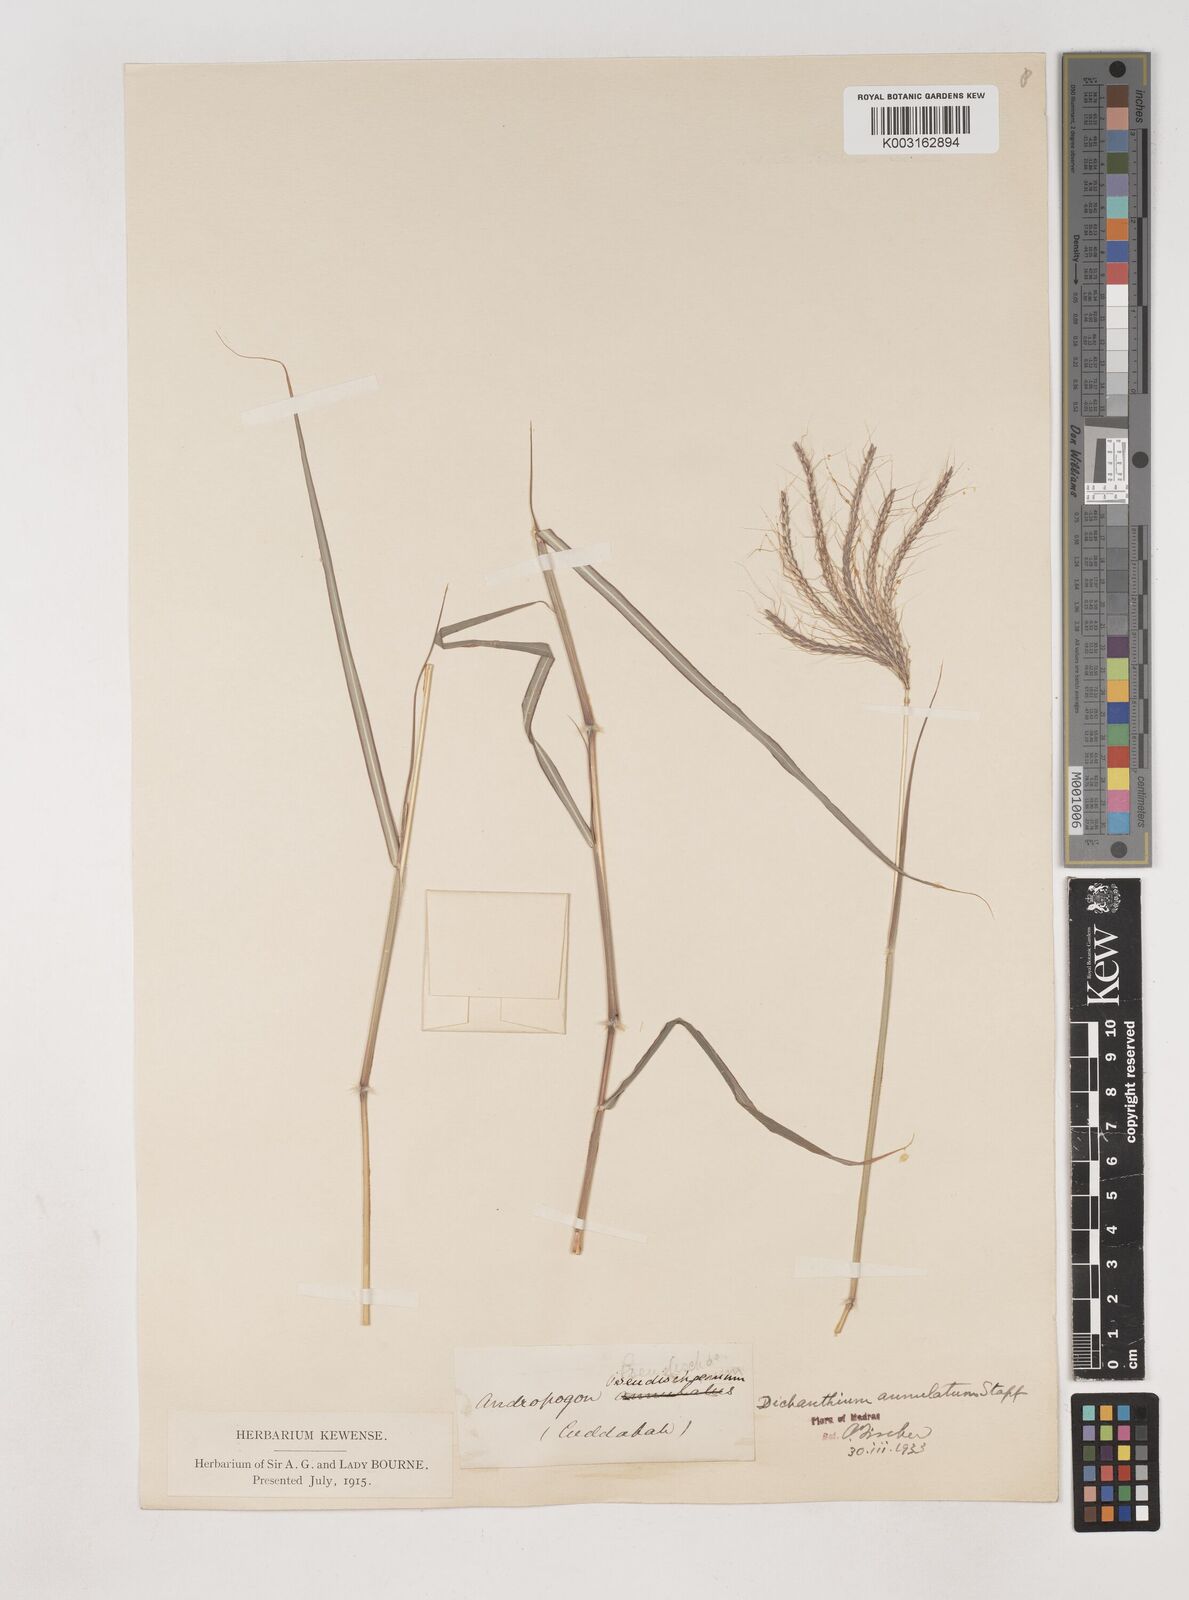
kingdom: Plantae
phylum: Tracheophyta
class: Liliopsida
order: Poales
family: Poaceae
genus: Dichanthium
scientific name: Dichanthium annulatum
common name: Kleberg's bluestem
